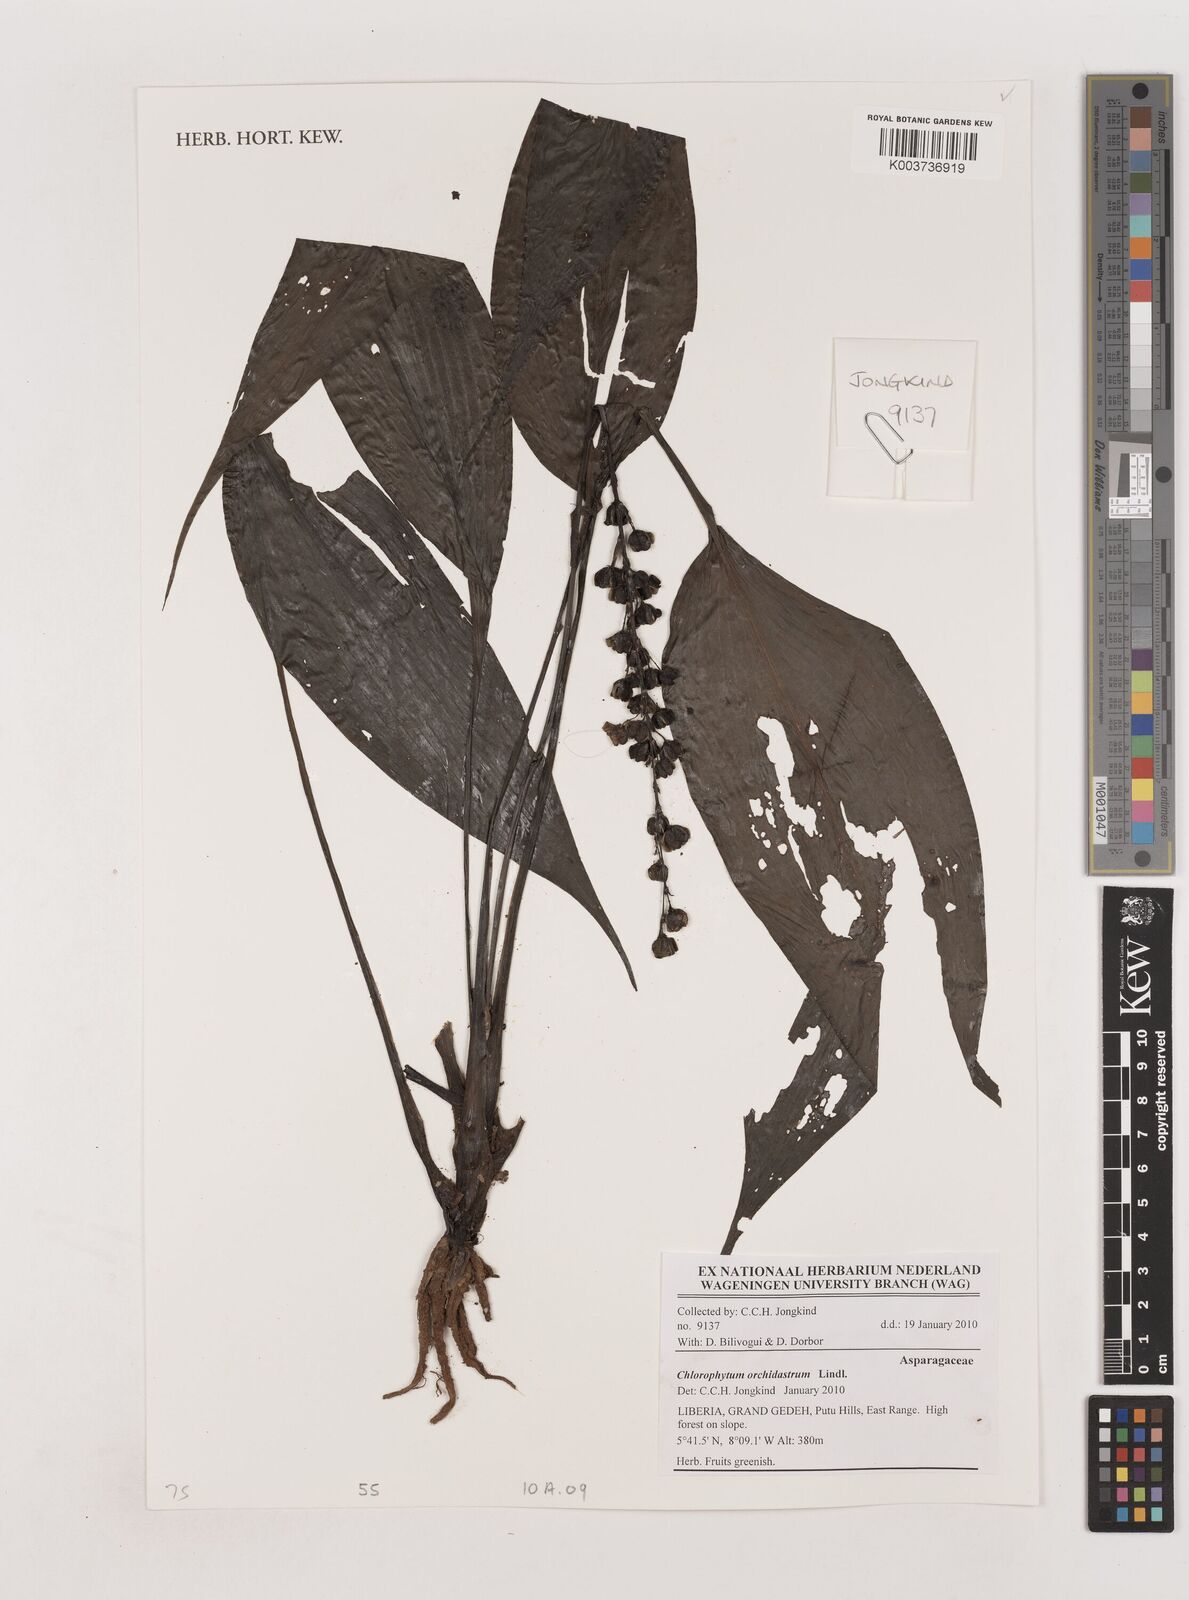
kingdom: Plantae
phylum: Tracheophyta
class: Liliopsida
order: Asparagales
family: Asparagaceae
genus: Chlorophytum
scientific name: Chlorophytum orchidastrum
